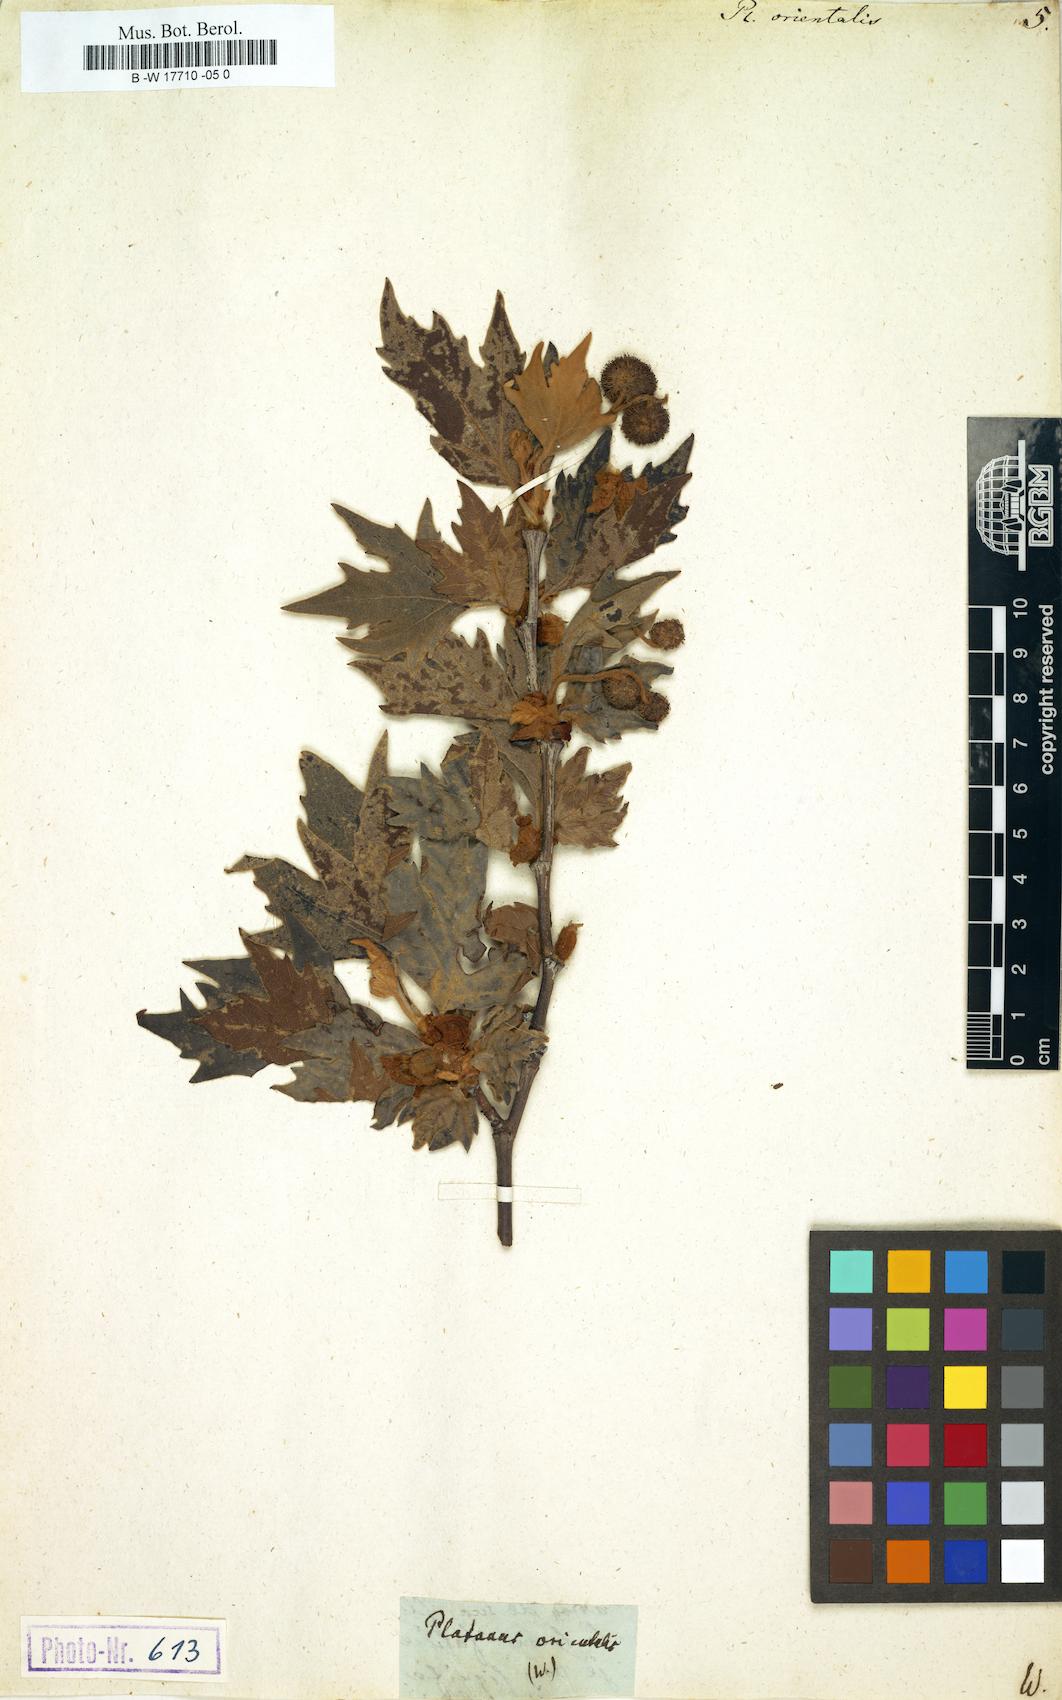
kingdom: Plantae
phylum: Tracheophyta
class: Magnoliopsida
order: Proteales
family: Platanaceae
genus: Platanus
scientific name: Platanus orientalis
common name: Oriental plane
